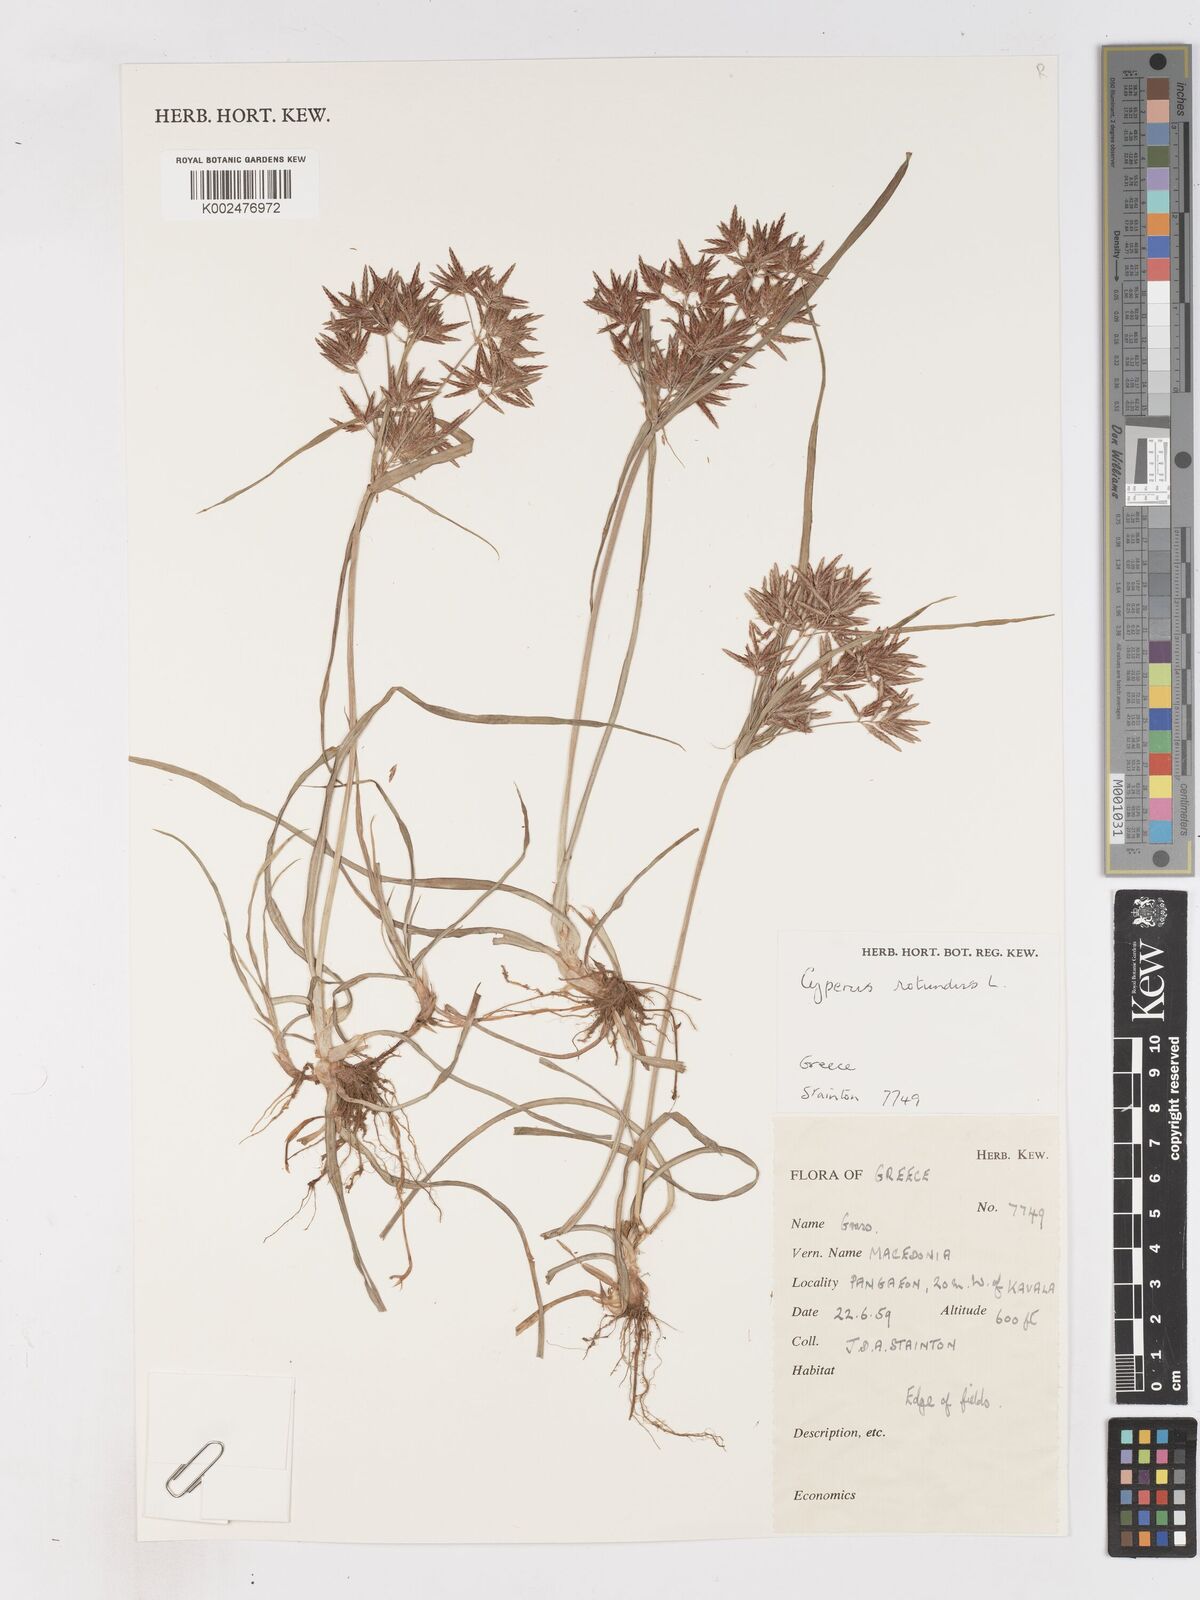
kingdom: Plantae
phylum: Tracheophyta
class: Liliopsida
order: Poales
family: Cyperaceae
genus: Cyperus
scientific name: Cyperus rotundus
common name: Nutgrass
